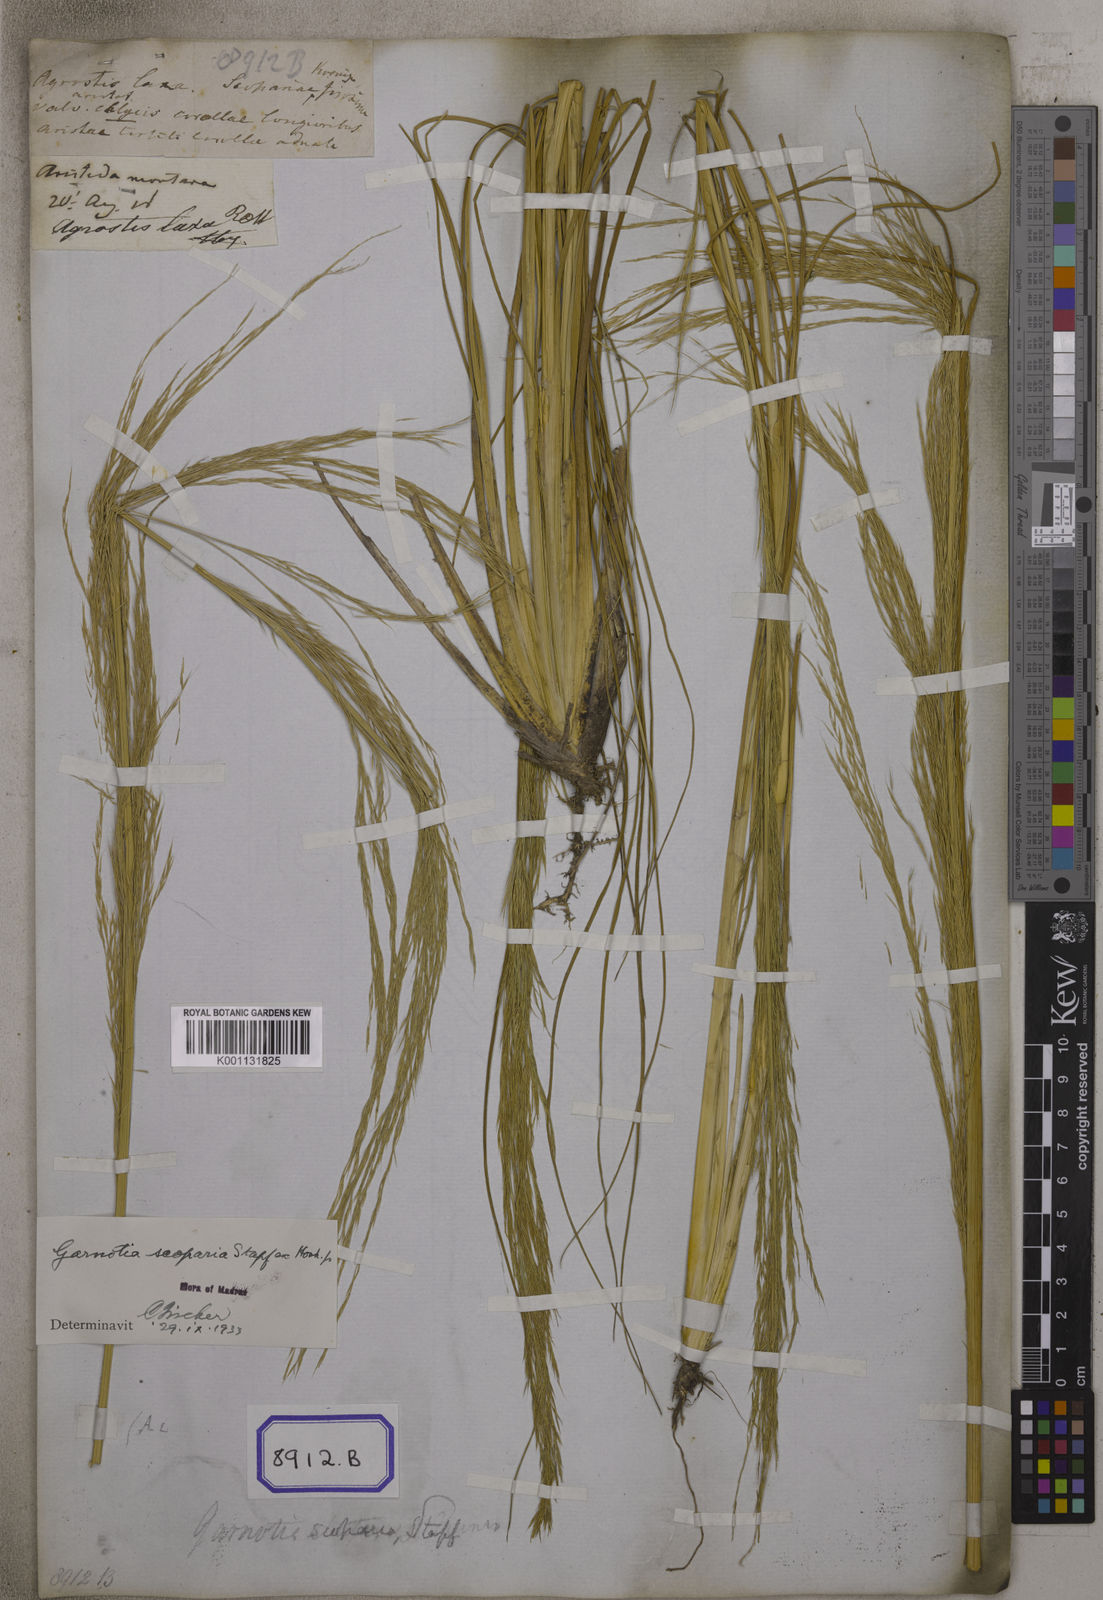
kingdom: Plantae
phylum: Tracheophyta
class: Liliopsida
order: Poales
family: Poaceae
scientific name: Poaceae
